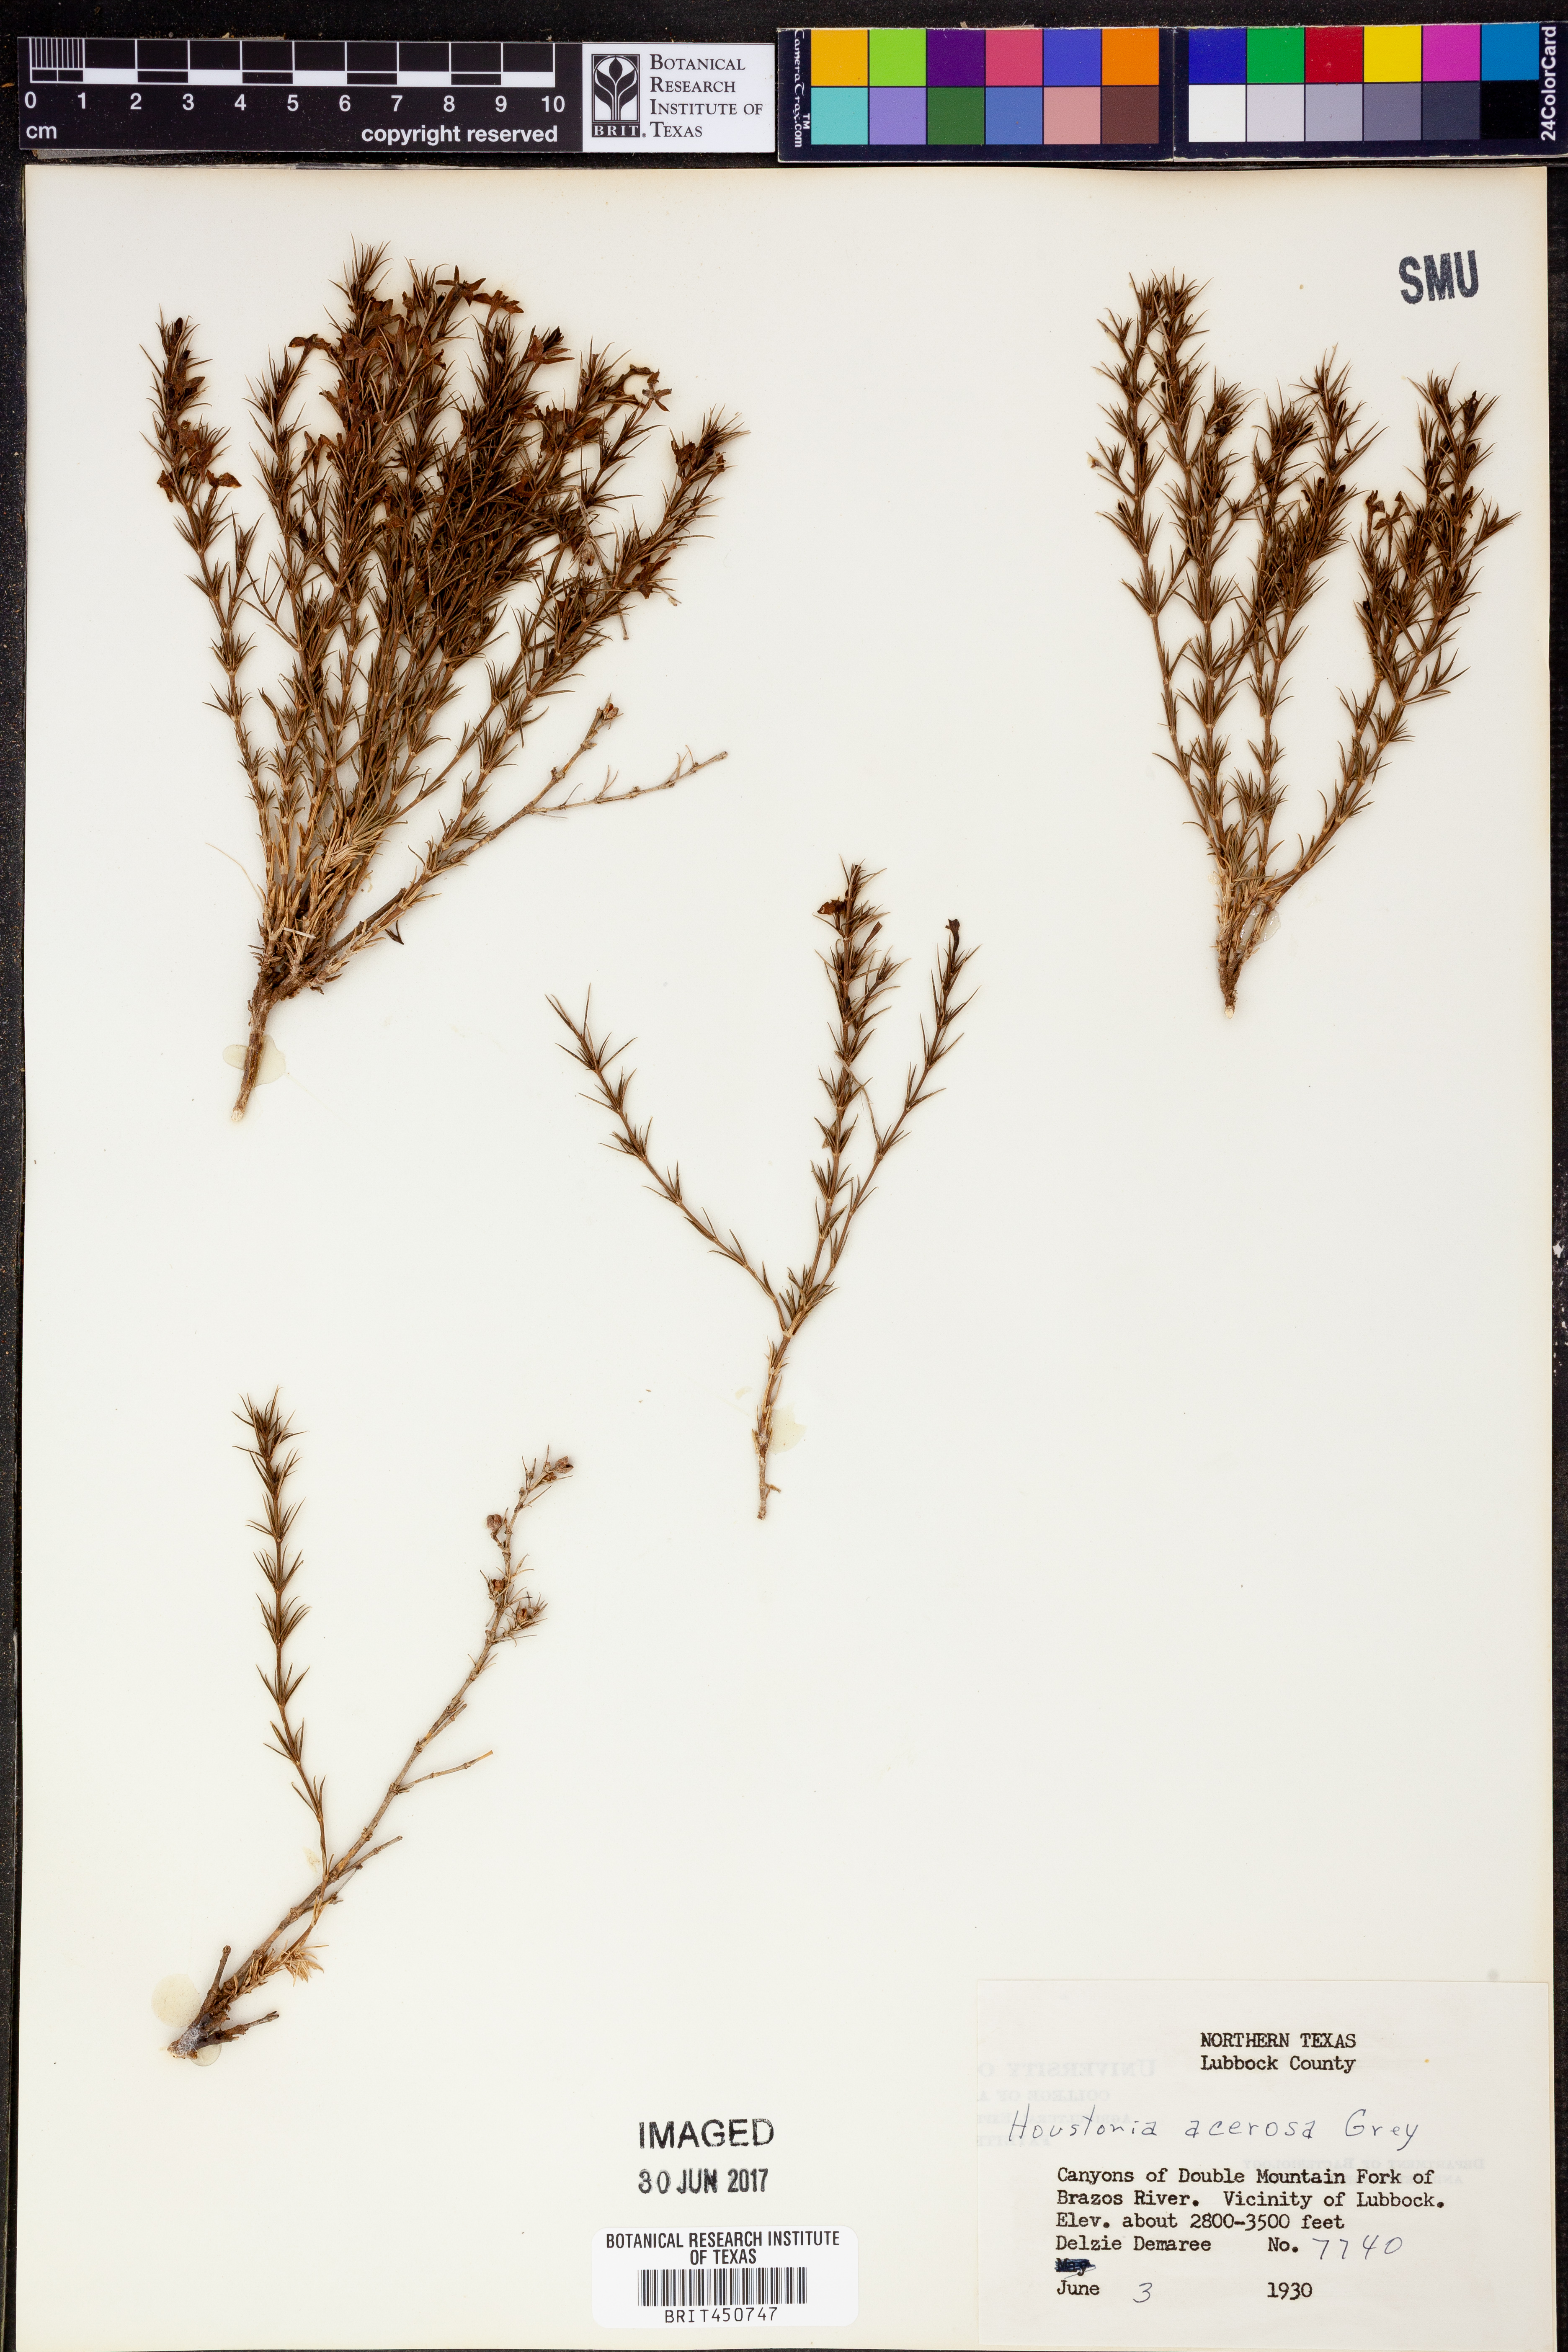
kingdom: Plantae
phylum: Tracheophyta
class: Magnoliopsida
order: Gentianales
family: Rubiaceae
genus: Houstonia
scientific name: Houstonia acerosa
